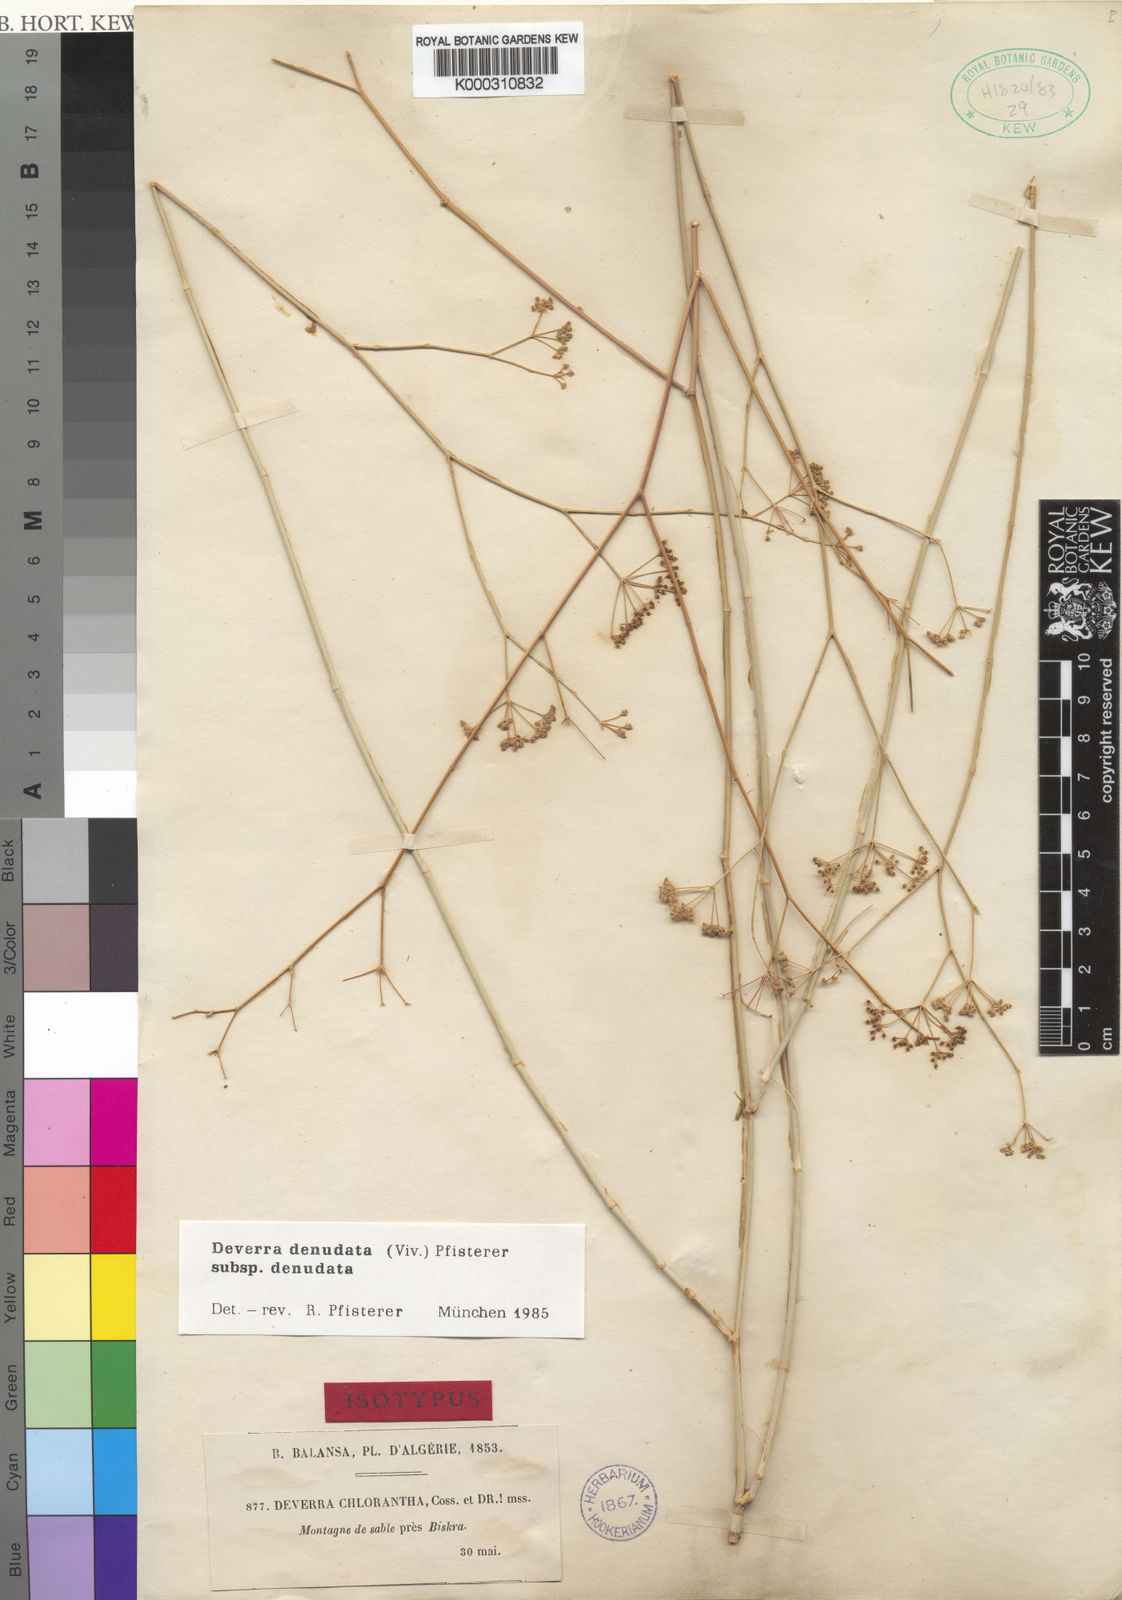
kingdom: Plantae
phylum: Tracheophyta
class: Magnoliopsida
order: Apiales
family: Apiaceae
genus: Deverra
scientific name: Deverra denudata
